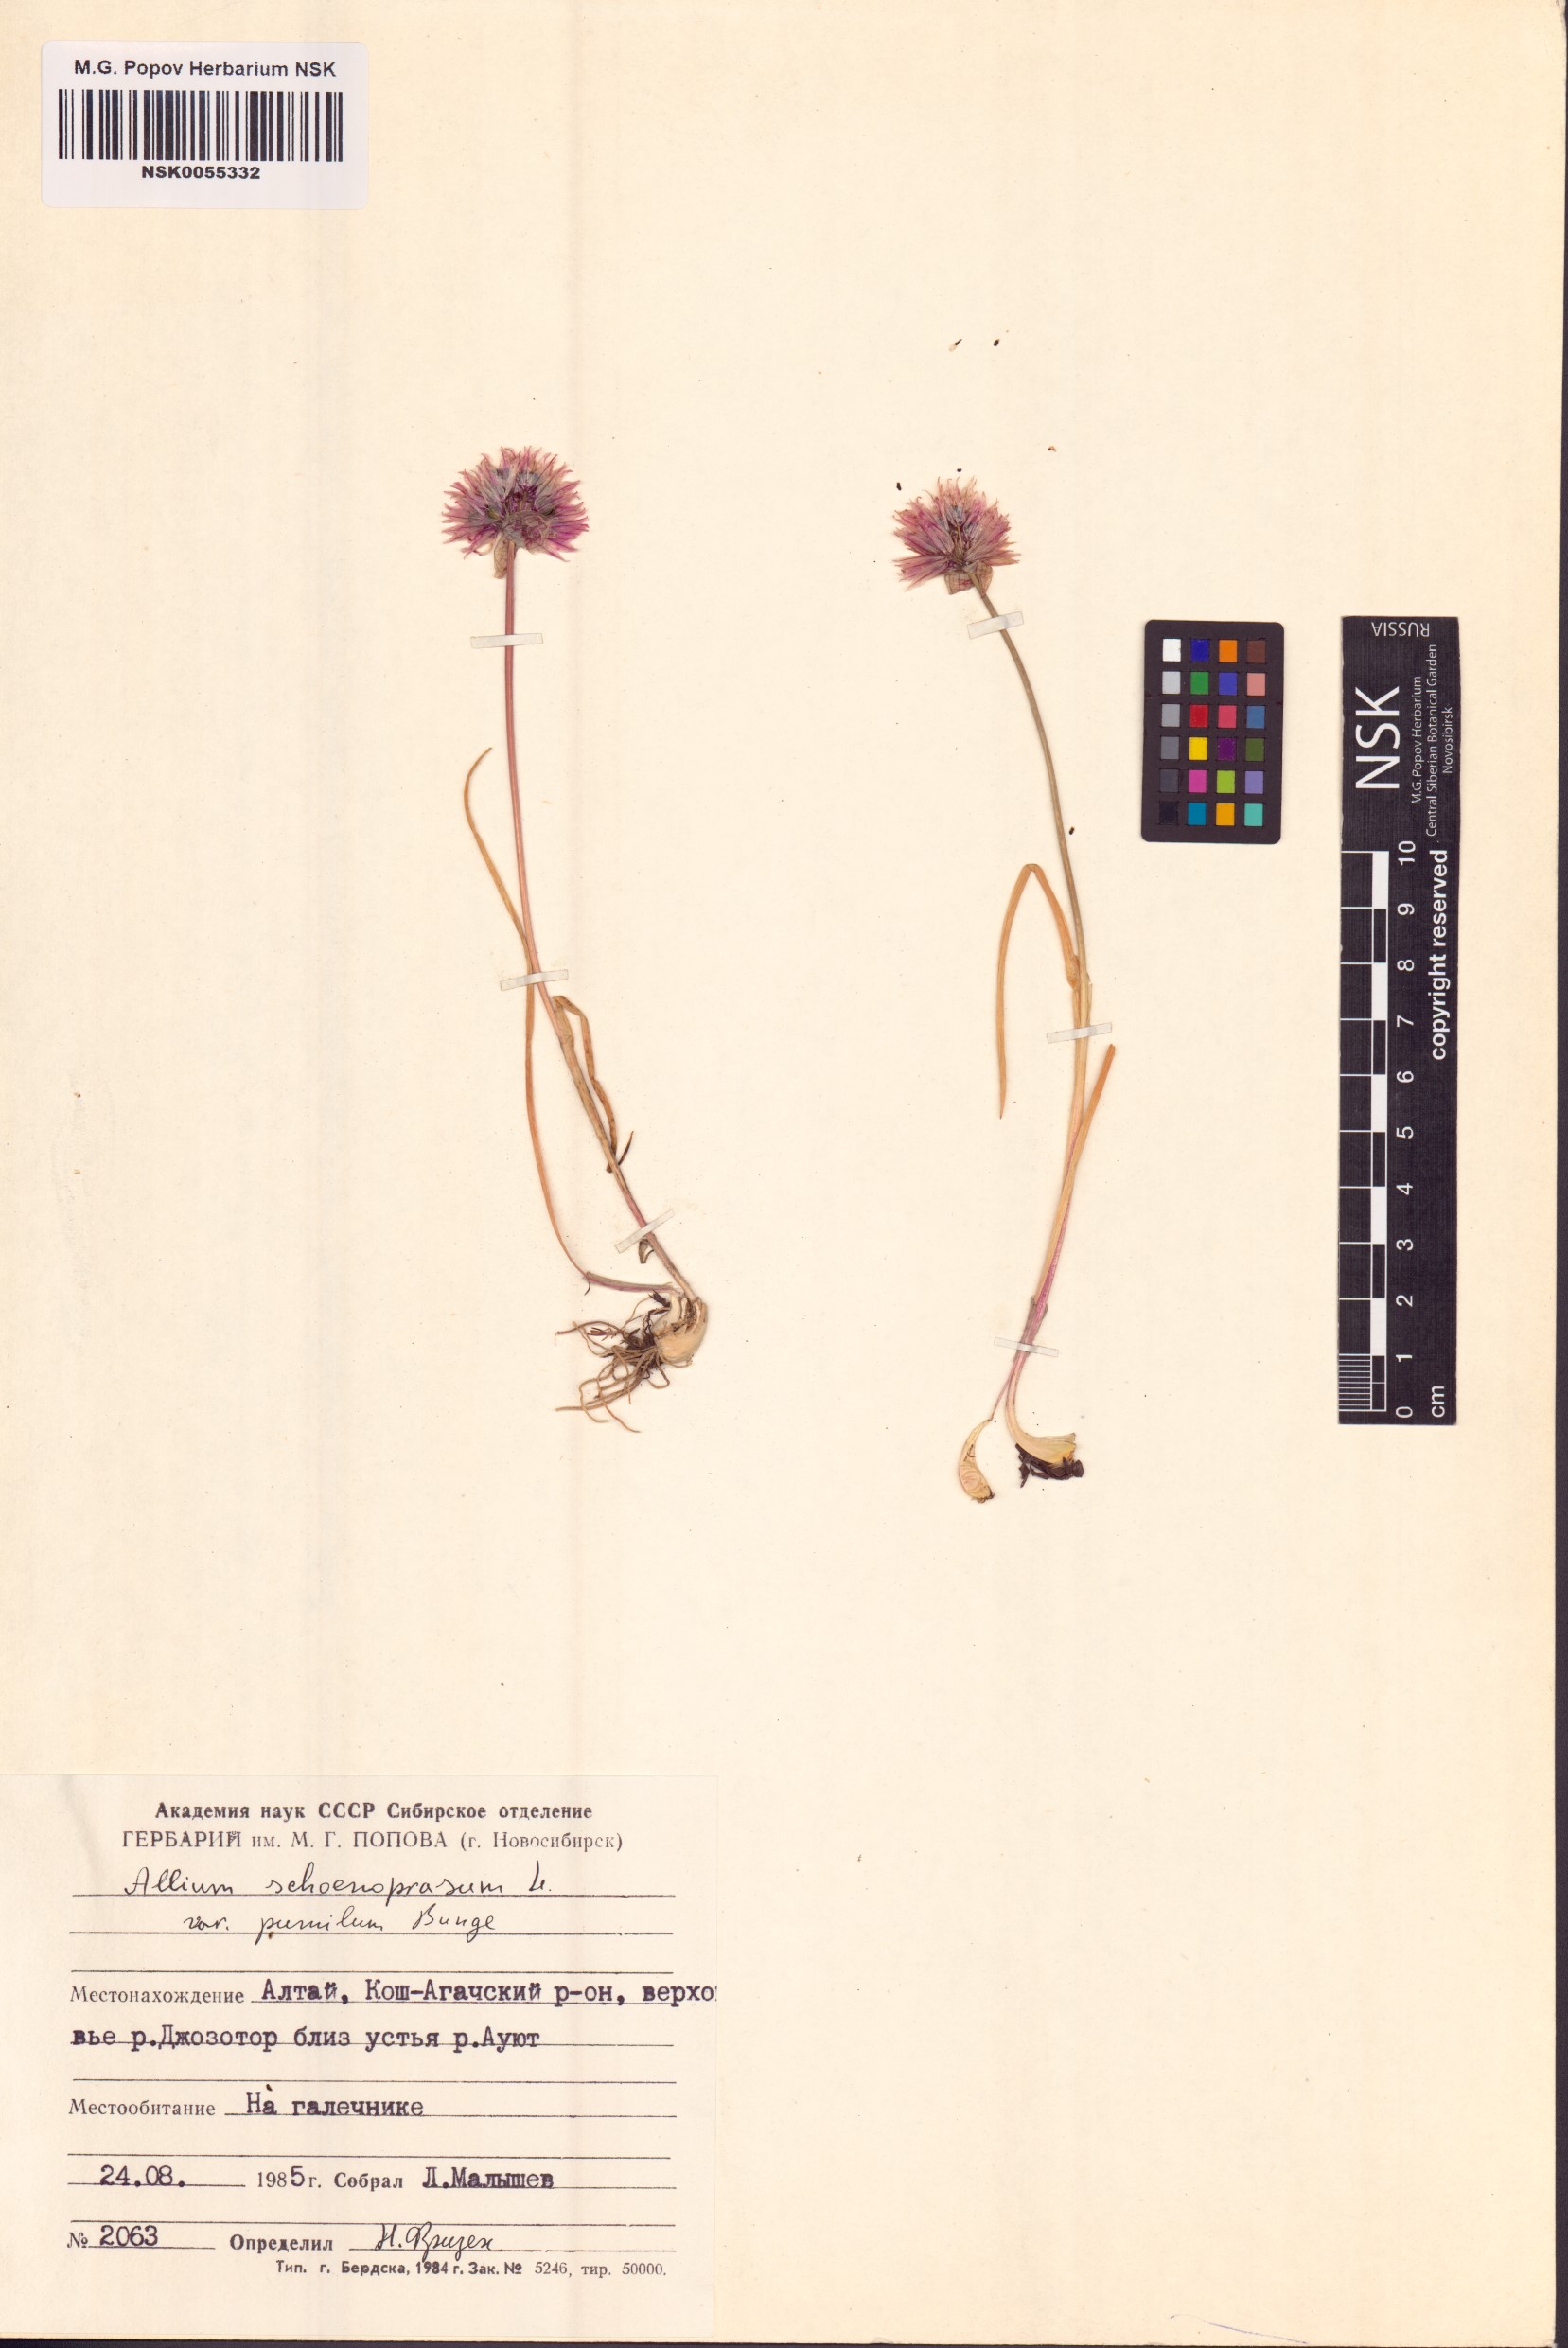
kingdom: Plantae
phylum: Tracheophyta
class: Liliopsida
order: Asparagales
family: Amaryllidaceae
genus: Allium
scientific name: Allium schoenoprasum
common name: Chives
